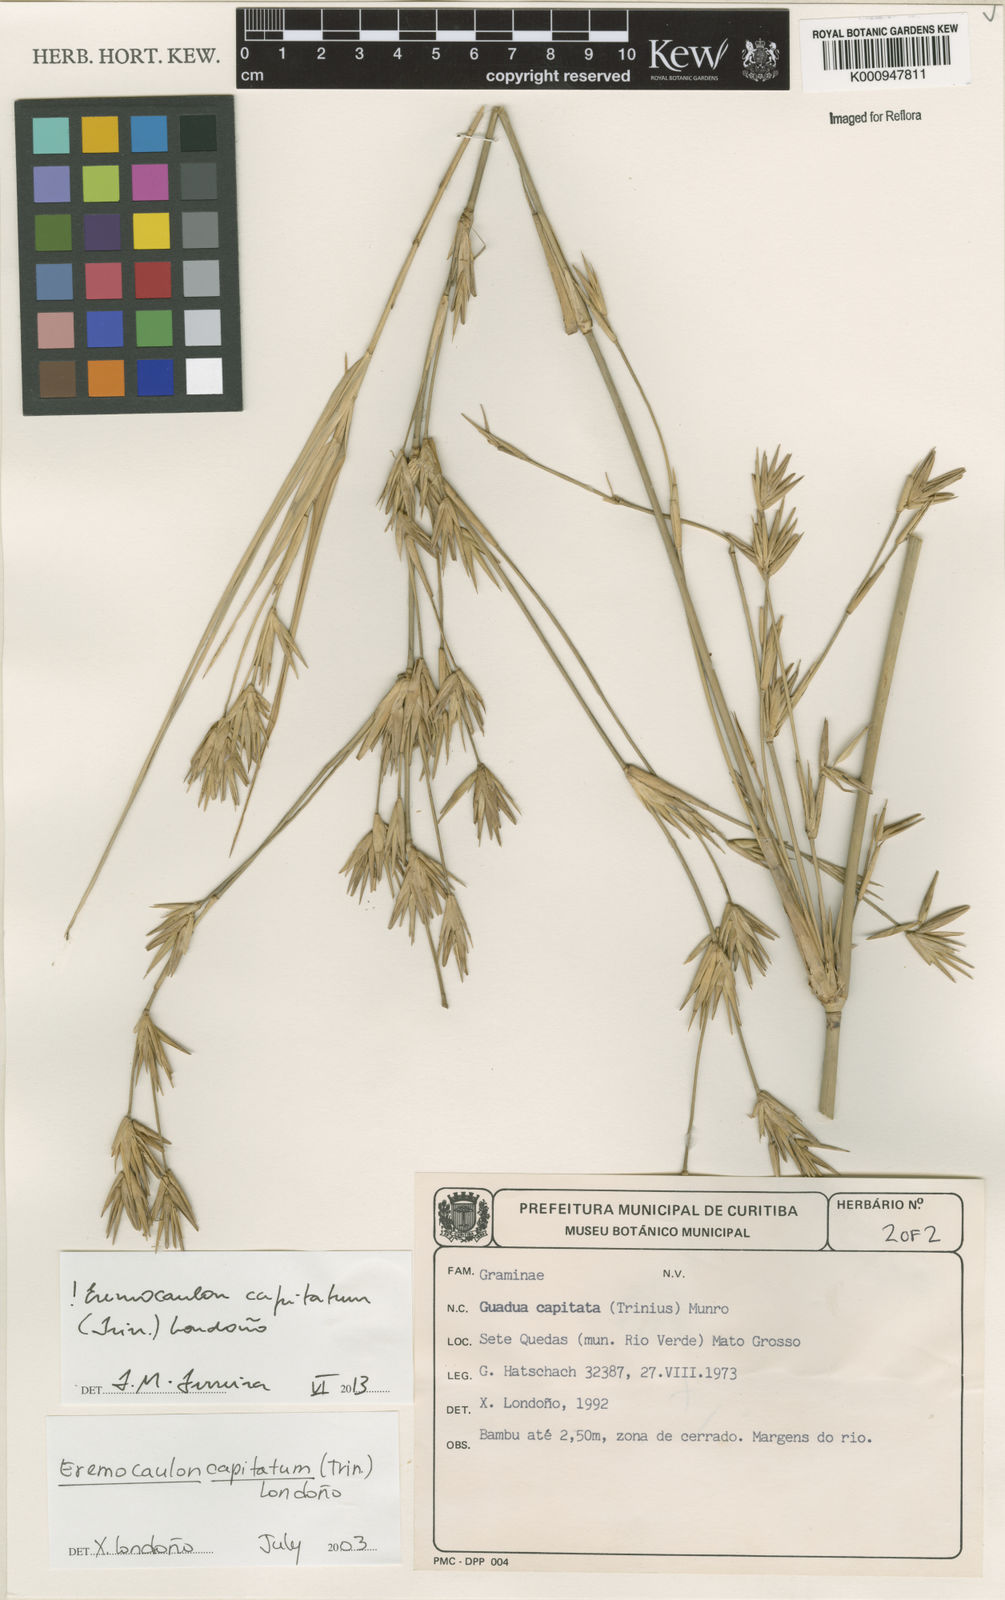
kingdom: Plantae
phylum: Tracheophyta
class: Liliopsida
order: Poales
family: Poaceae
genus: Eremocaulon
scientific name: Eremocaulon
